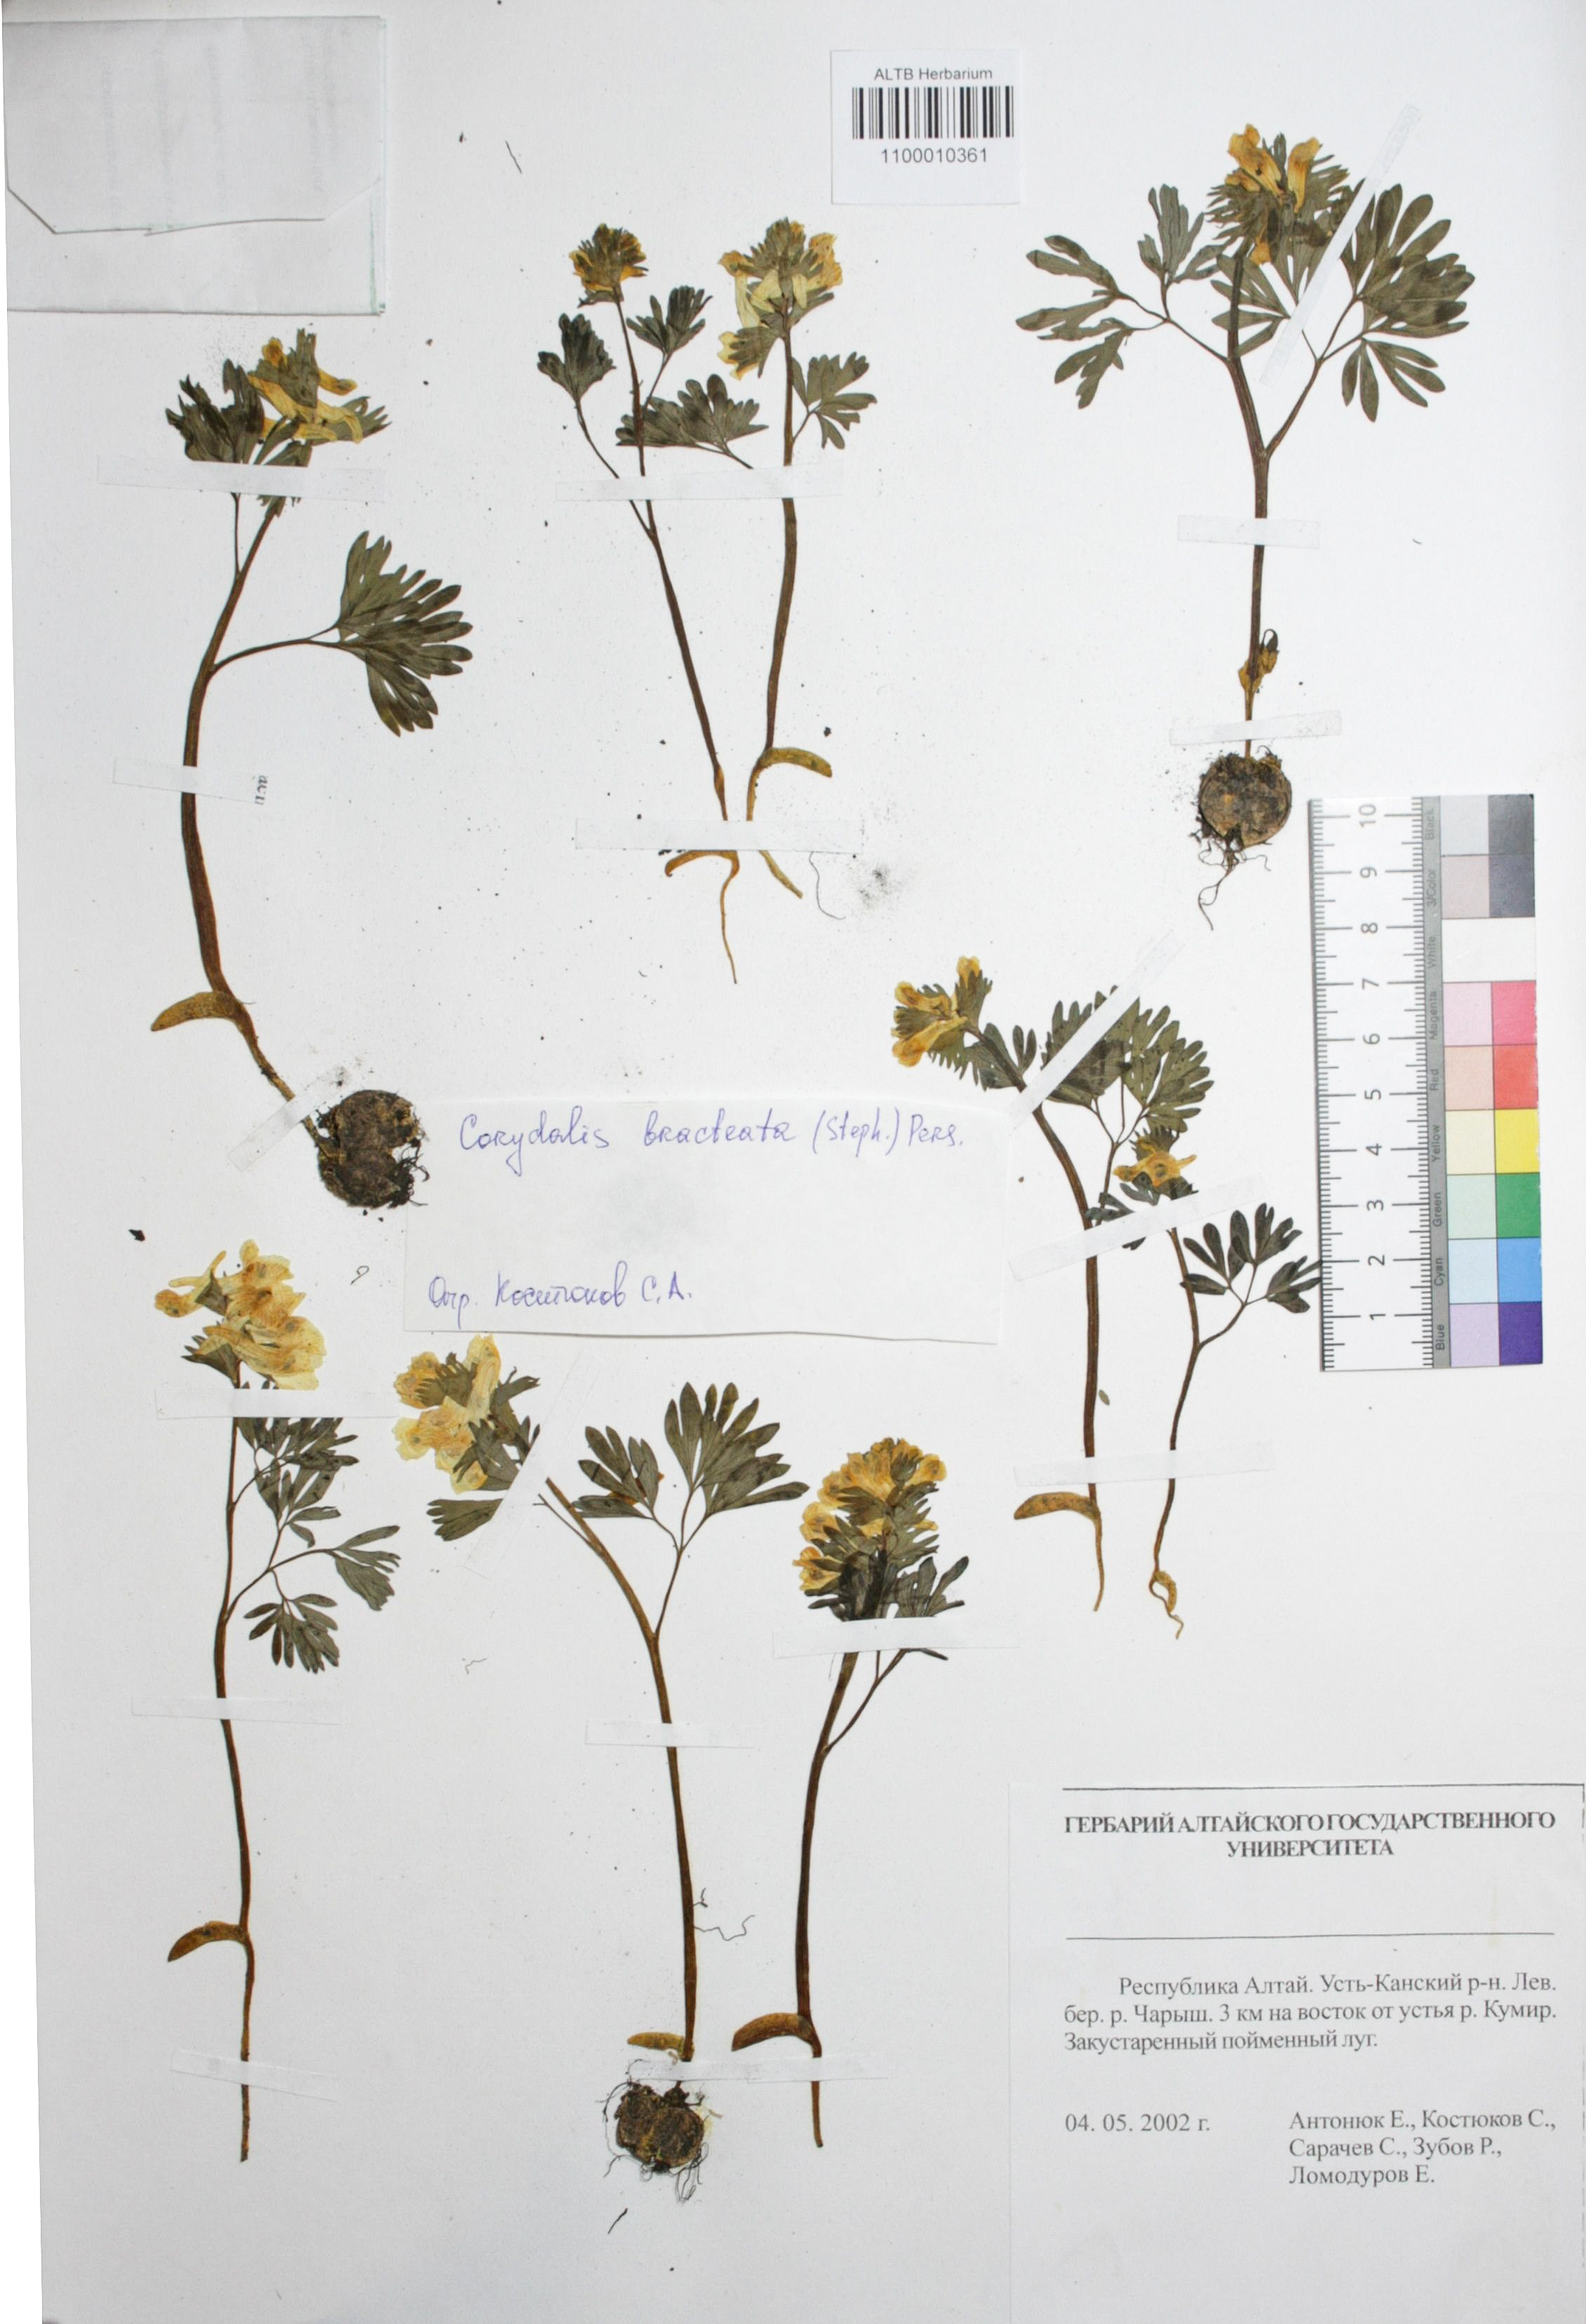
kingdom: Plantae
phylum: Tracheophyta
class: Magnoliopsida
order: Ranunculales
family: Papaveraceae
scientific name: Papaveraceae
